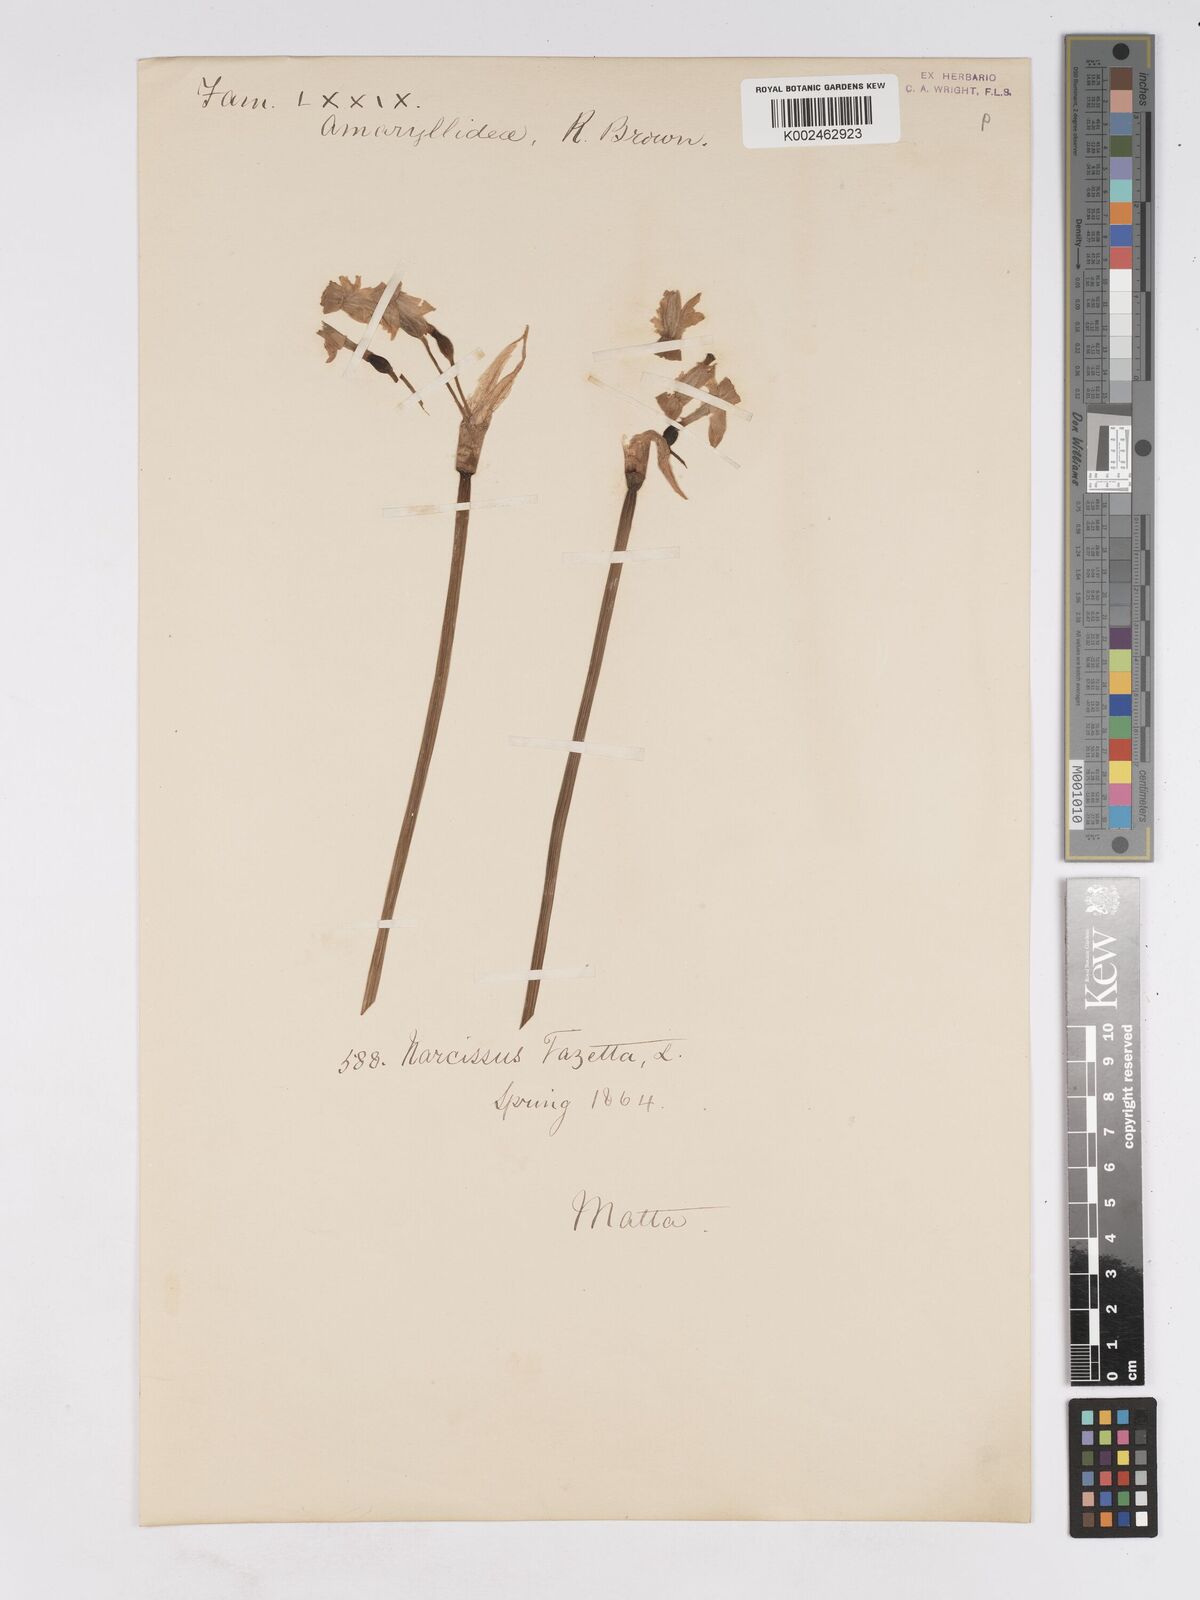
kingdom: Plantae
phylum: Tracheophyta
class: Liliopsida
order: Asparagales
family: Amaryllidaceae
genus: Narcissus
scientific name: Narcissus
